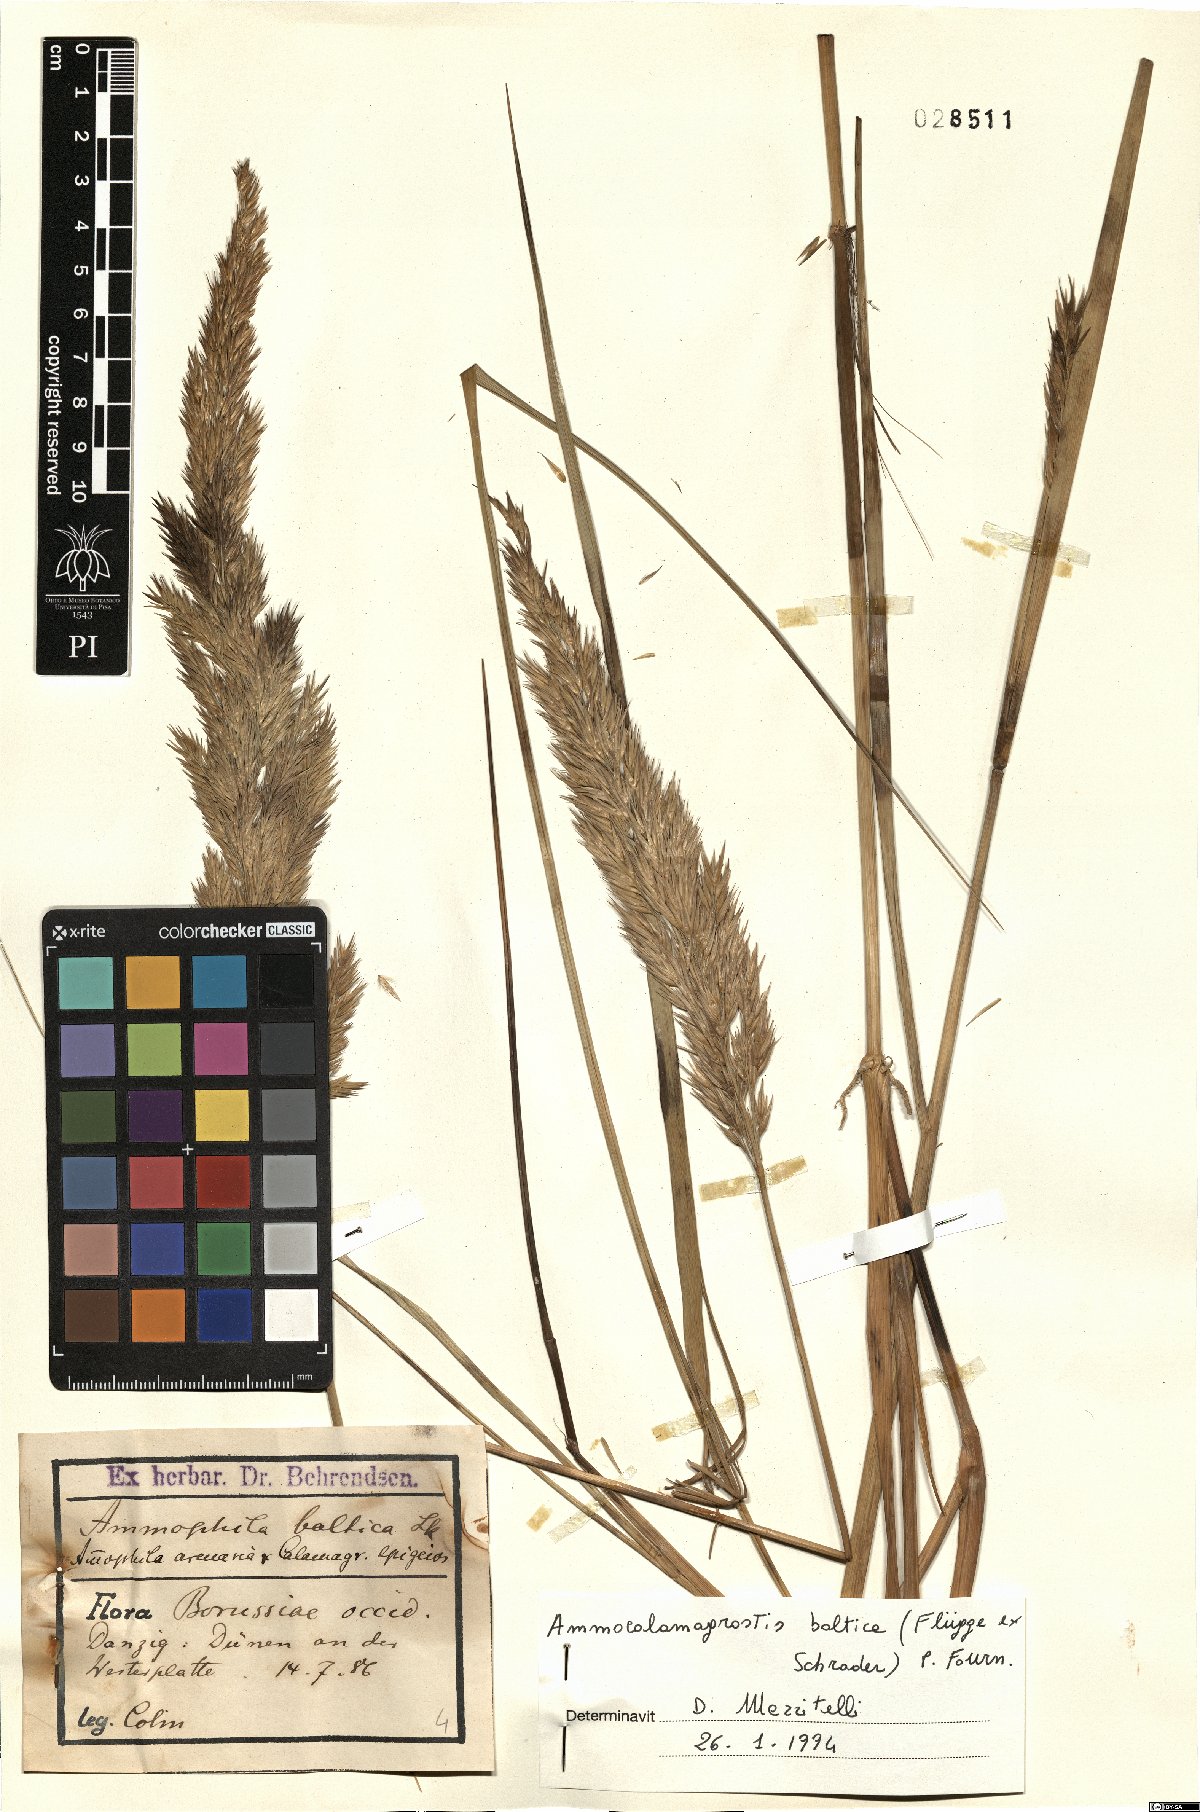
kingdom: Plantae
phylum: Tracheophyta
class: Liliopsida
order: Poales
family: Poaceae
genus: Calamagrostis
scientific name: Calamagrostis baltica
